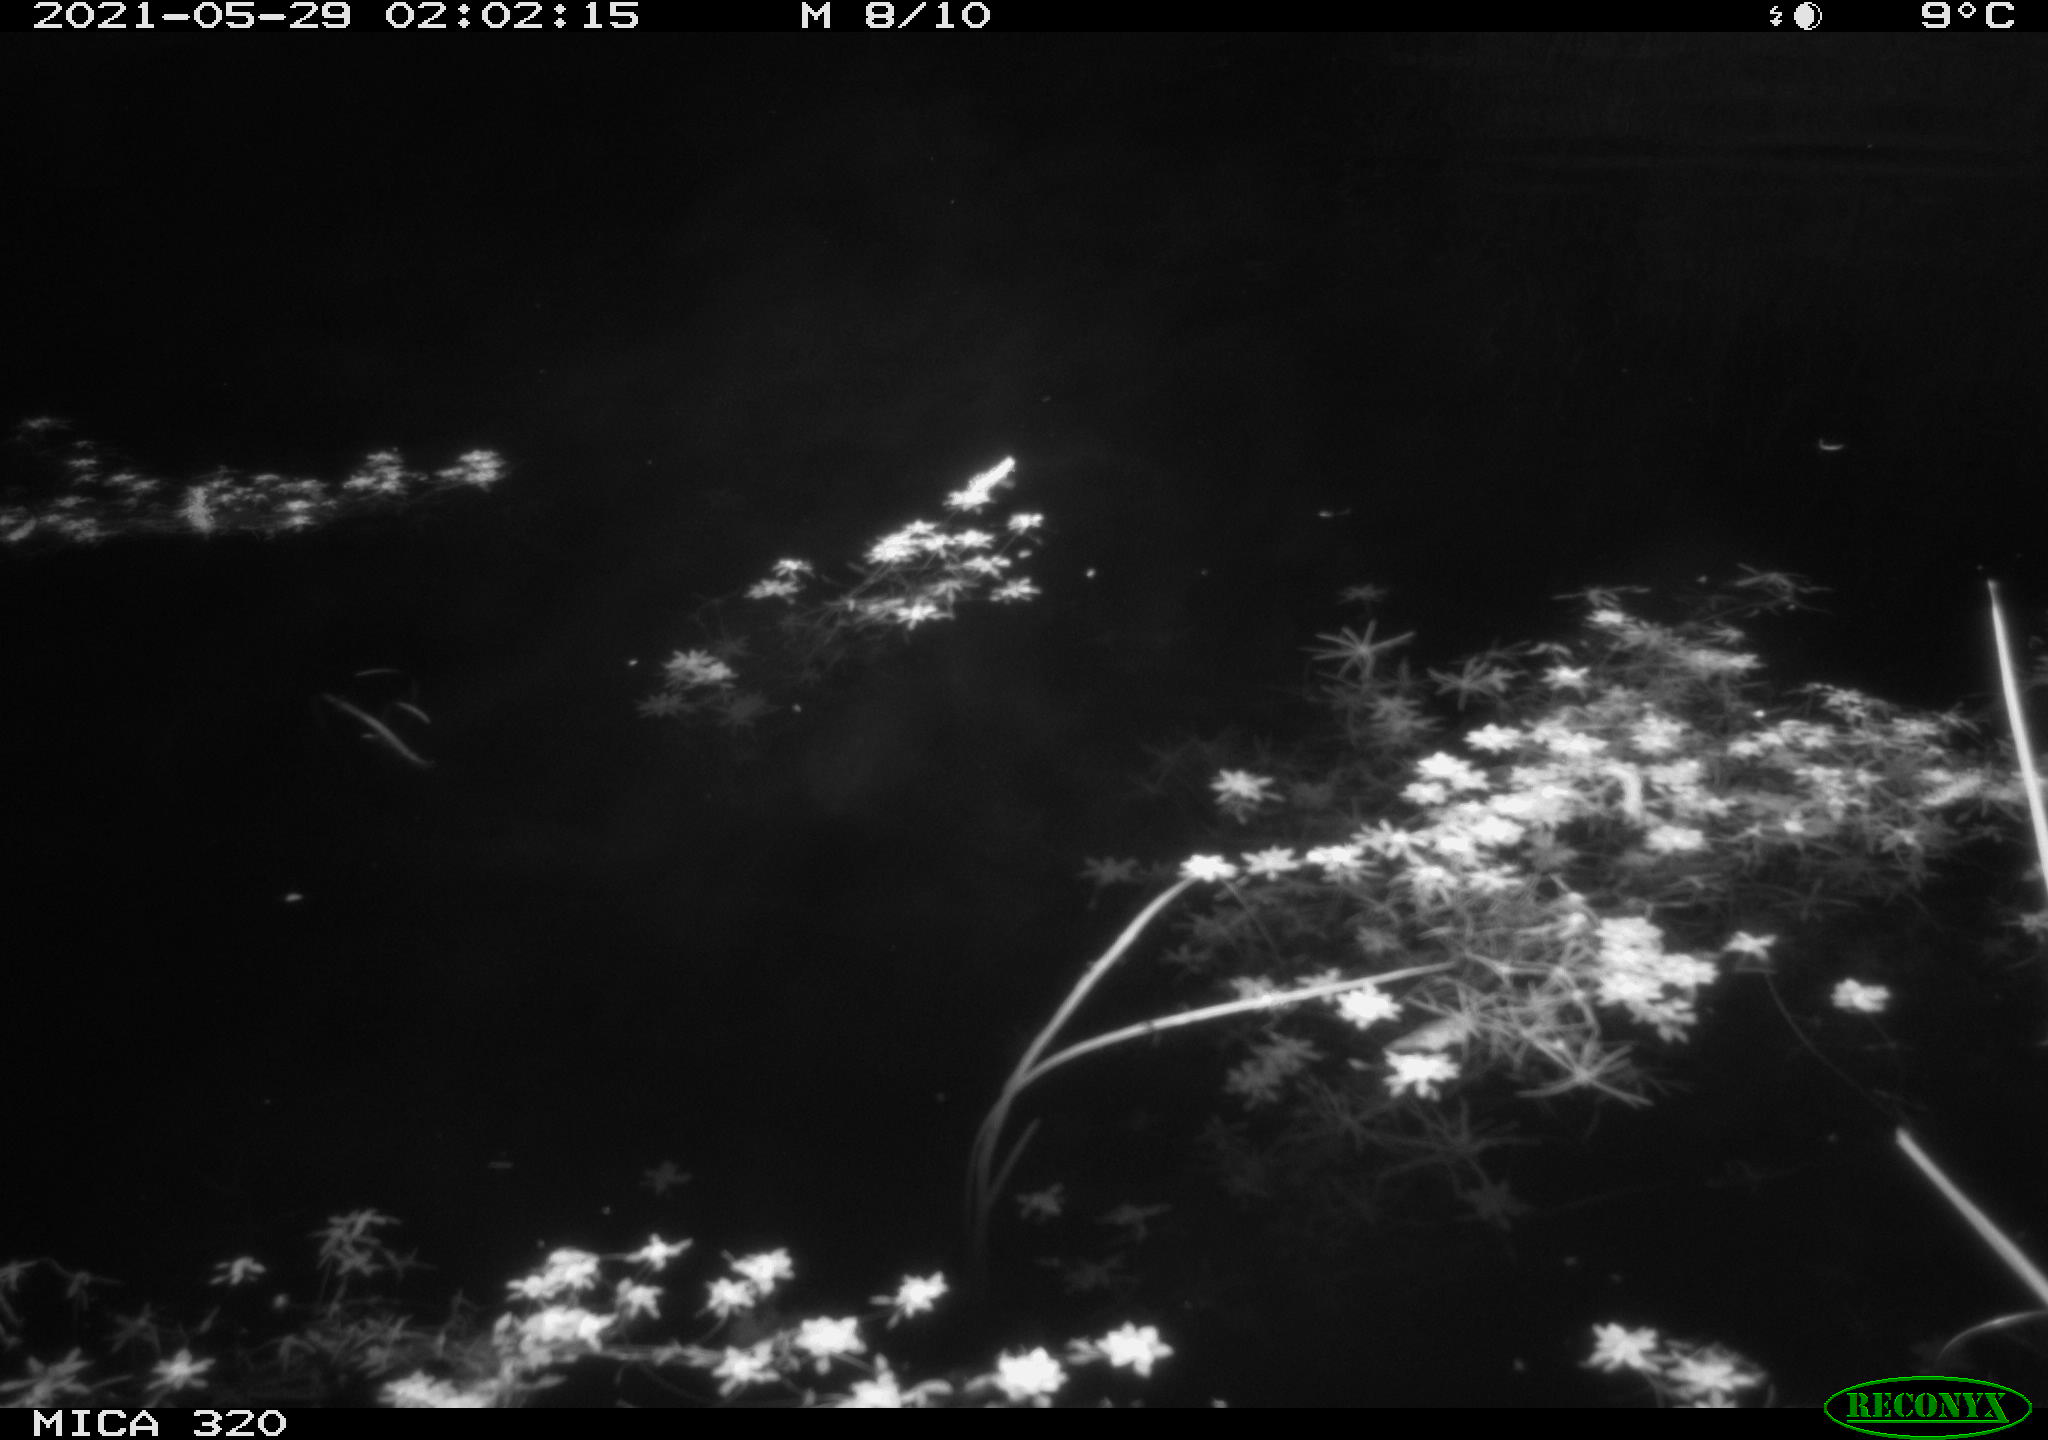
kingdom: Animalia
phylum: Chordata
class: Aves
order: Anseriformes
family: Anatidae
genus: Mareca
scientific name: Mareca strepera
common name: Gadwall
